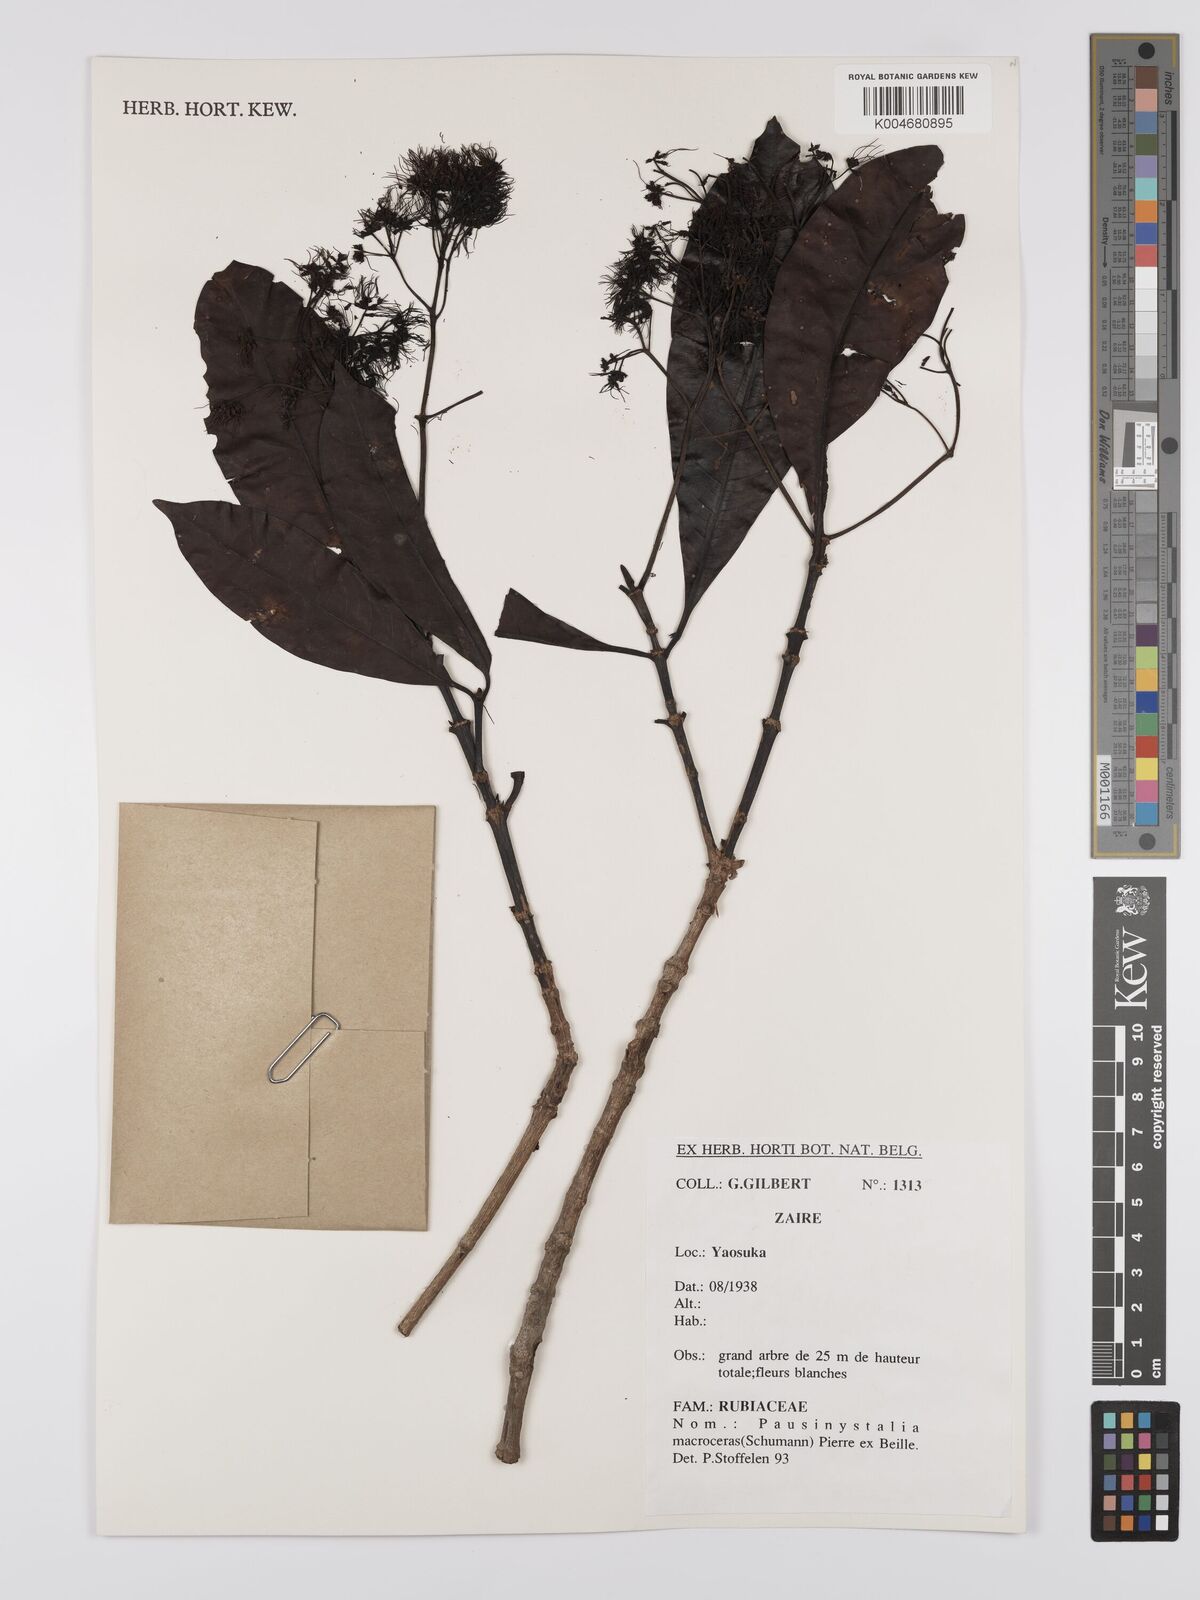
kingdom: Plantae
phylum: Tracheophyta
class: Magnoliopsida
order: Gentianales
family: Rubiaceae
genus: Corynanthe
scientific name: Corynanthe macroceras
